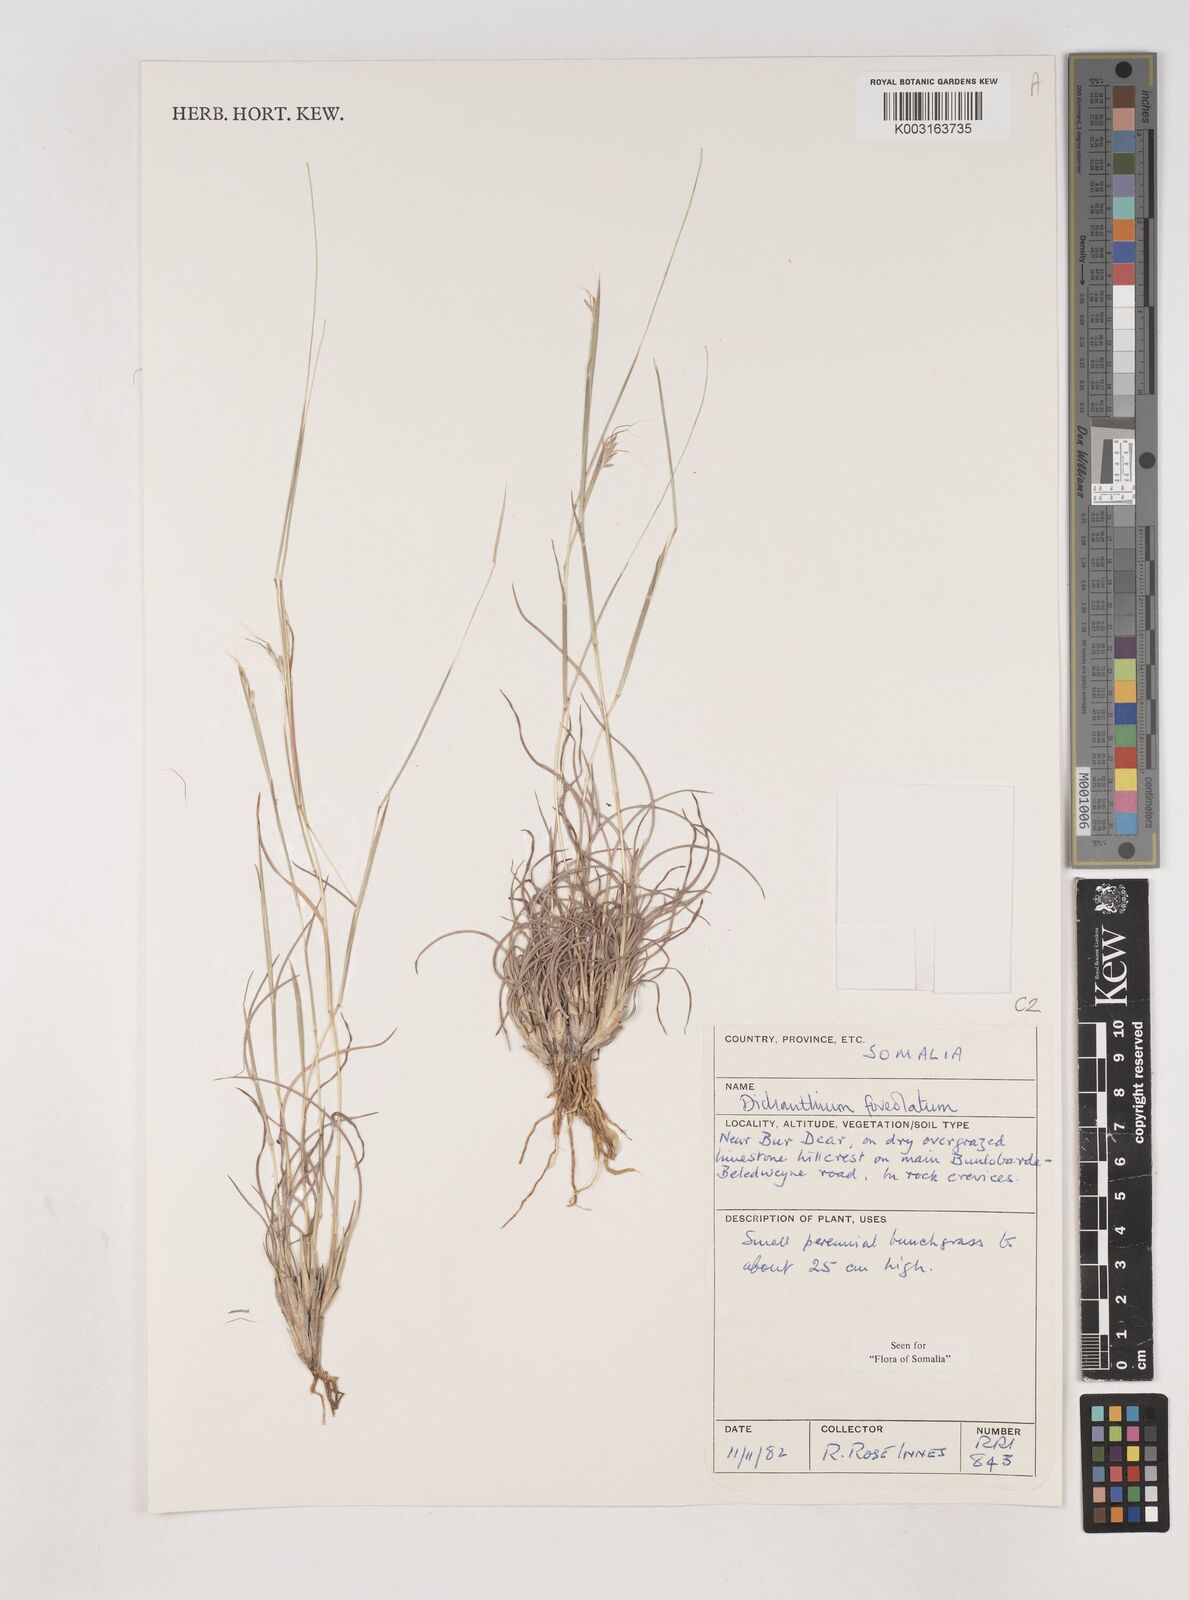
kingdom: Plantae
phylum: Tracheophyta
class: Liliopsida
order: Poales
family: Poaceae
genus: Dichanthium
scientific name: Dichanthium foveolatum
